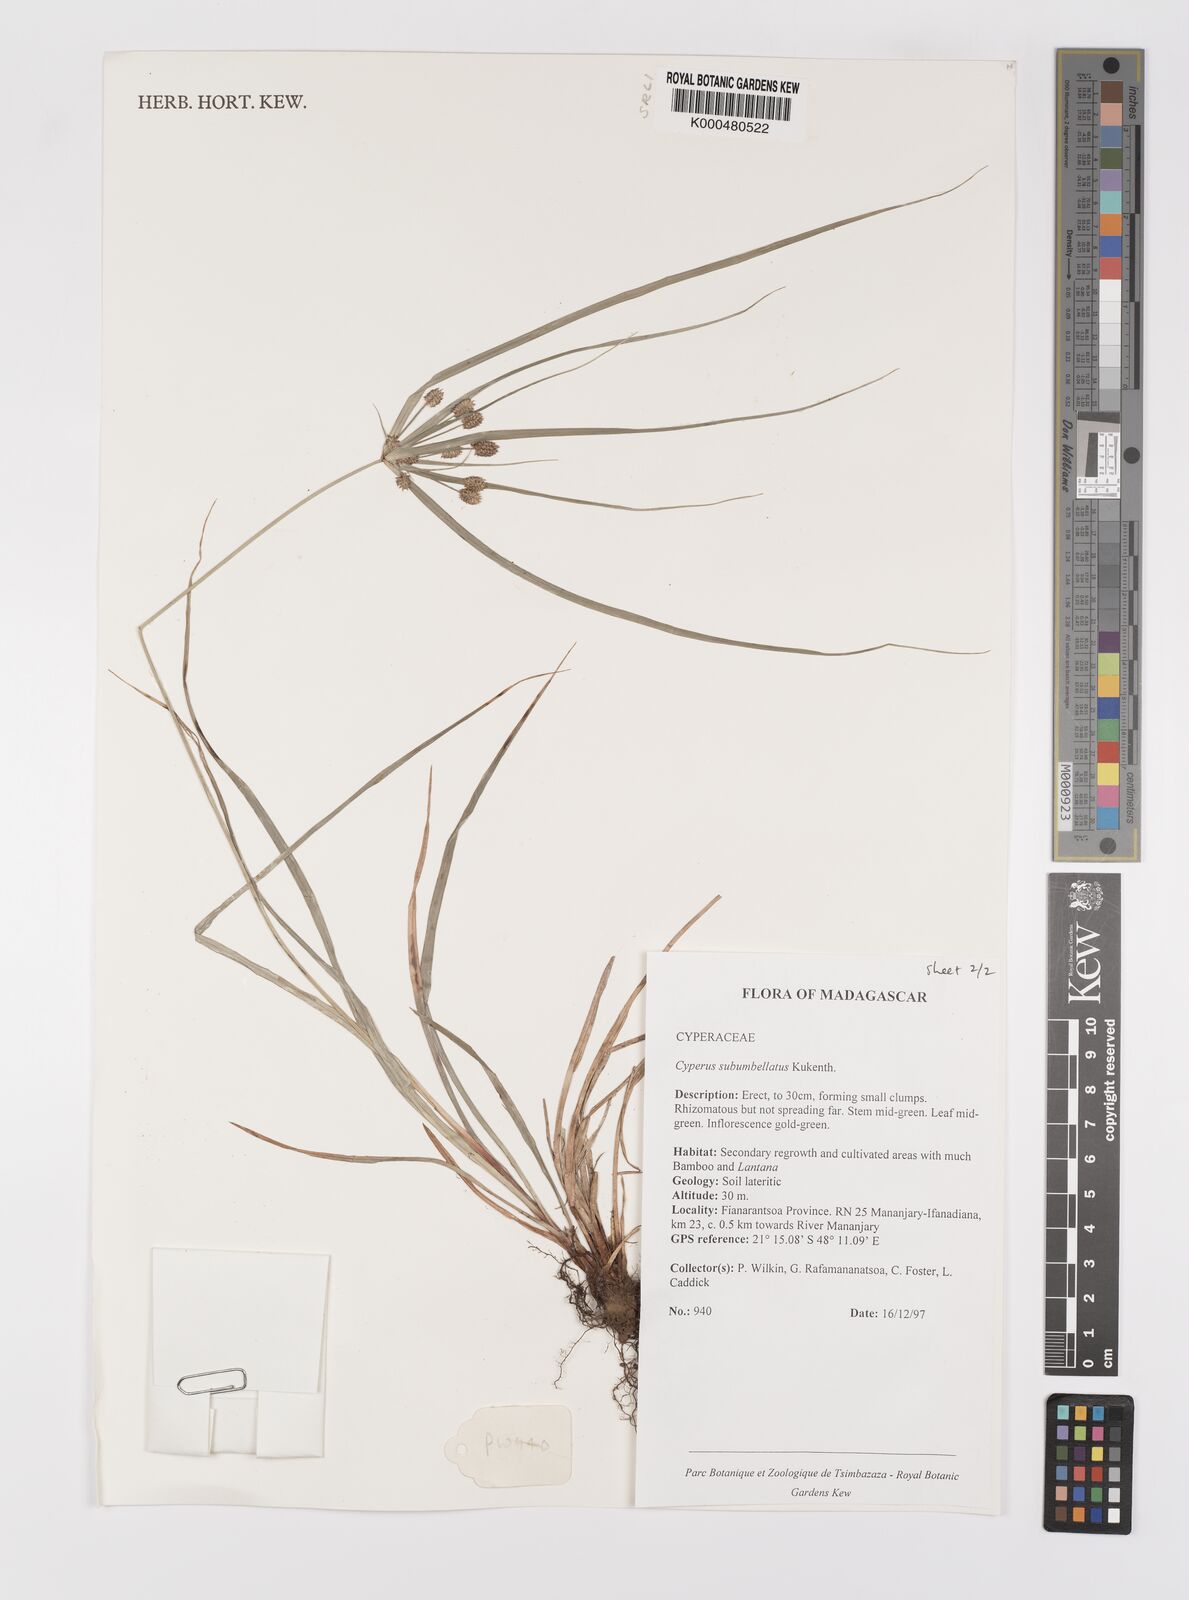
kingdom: Plantae
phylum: Tracheophyta
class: Liliopsida
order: Poales
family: Cyperaceae
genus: Cyperus
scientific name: Cyperus cyperoides
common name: Pacific island flat sedge
